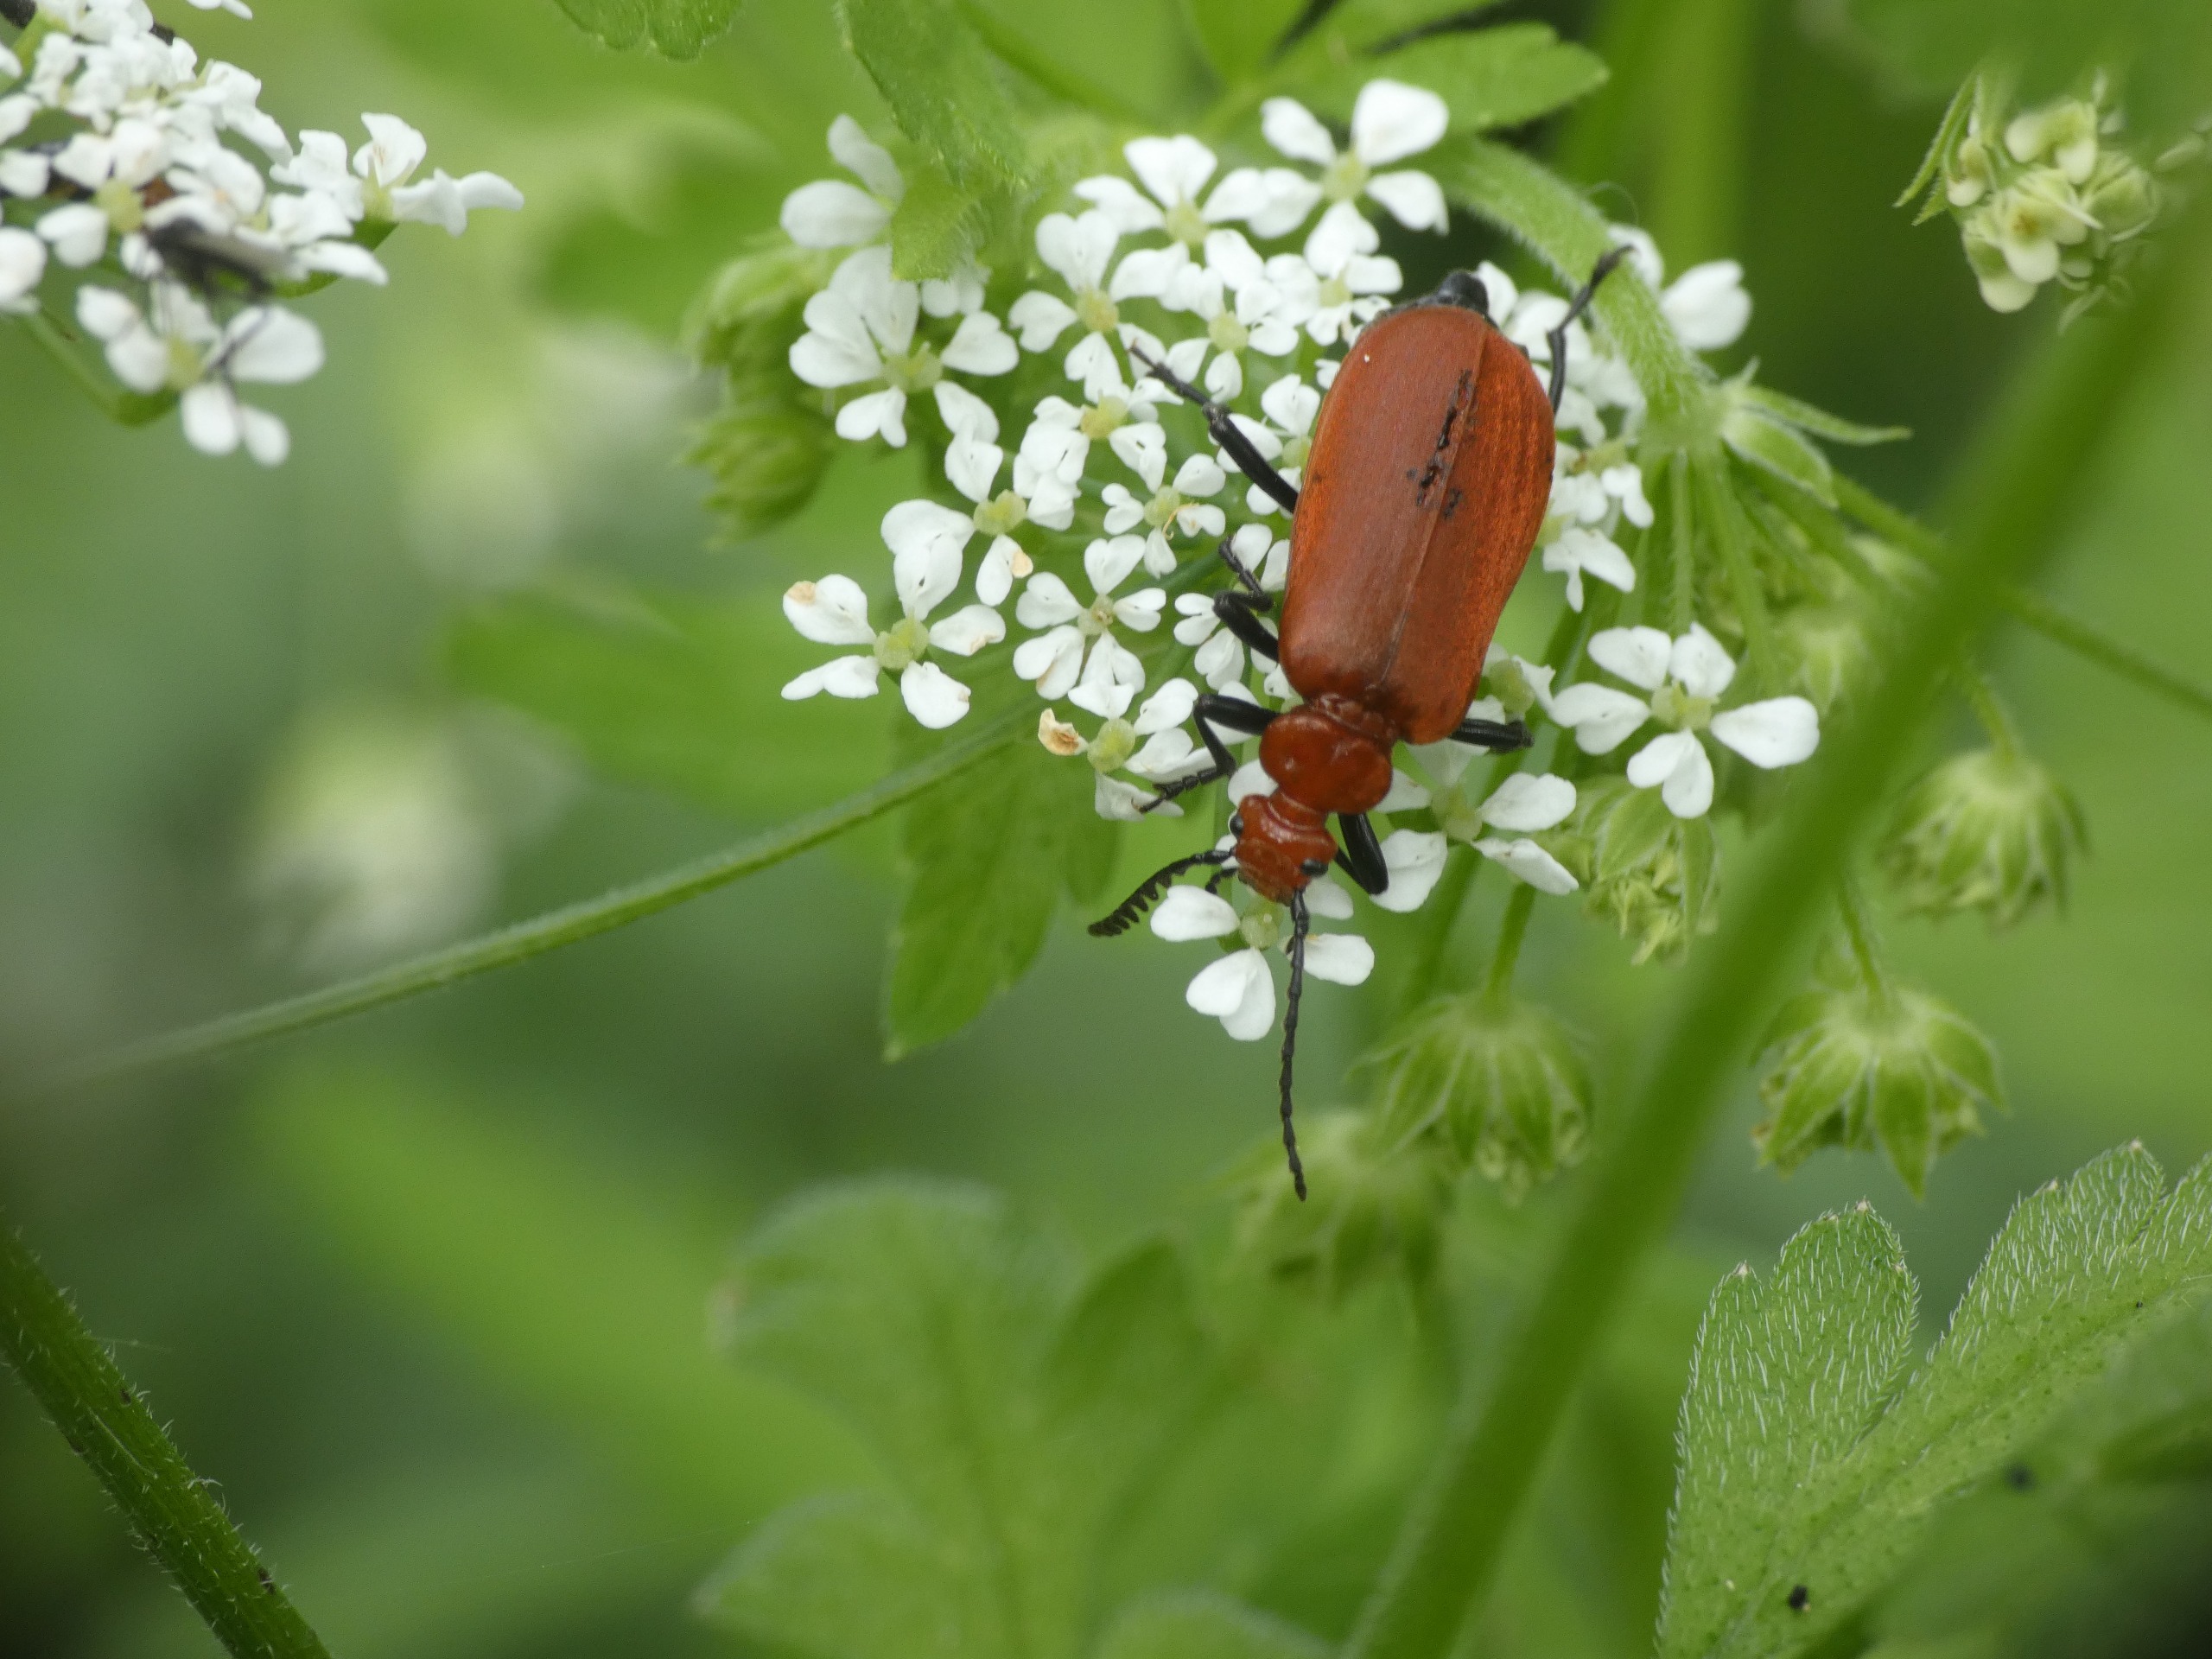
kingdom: Animalia
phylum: Arthropoda
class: Insecta
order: Coleoptera
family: Pyrochroidae
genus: Pyrochroa
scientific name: Pyrochroa serraticornis
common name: Rødhovedet kardinalbille
